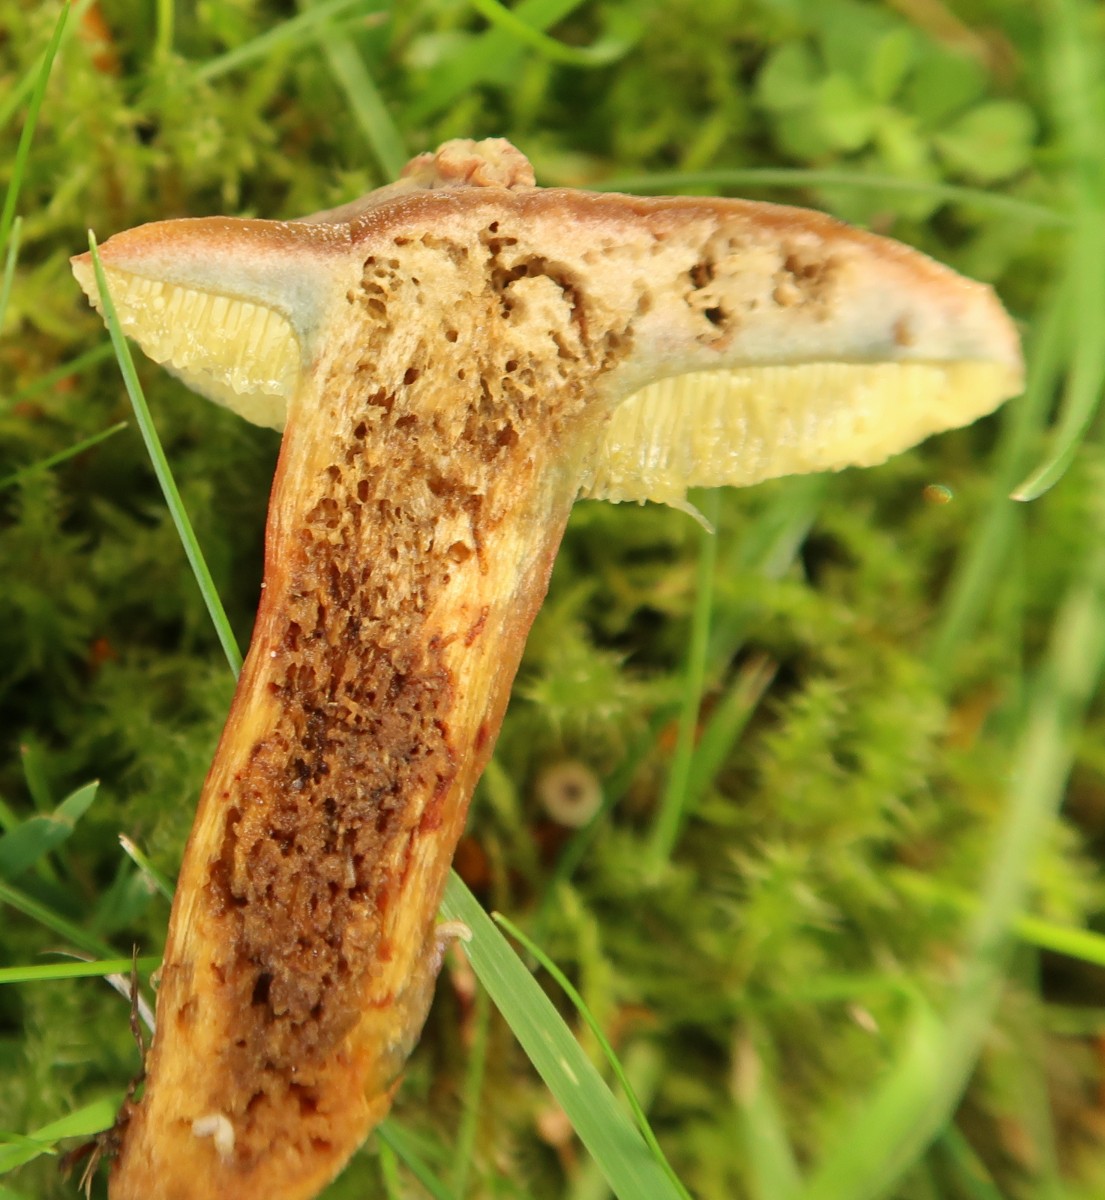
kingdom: Fungi
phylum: Basidiomycota
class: Agaricomycetes
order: Boletales
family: Boletaceae
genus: Hortiboletus
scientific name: Hortiboletus bubalinus
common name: aurora-rørhat
